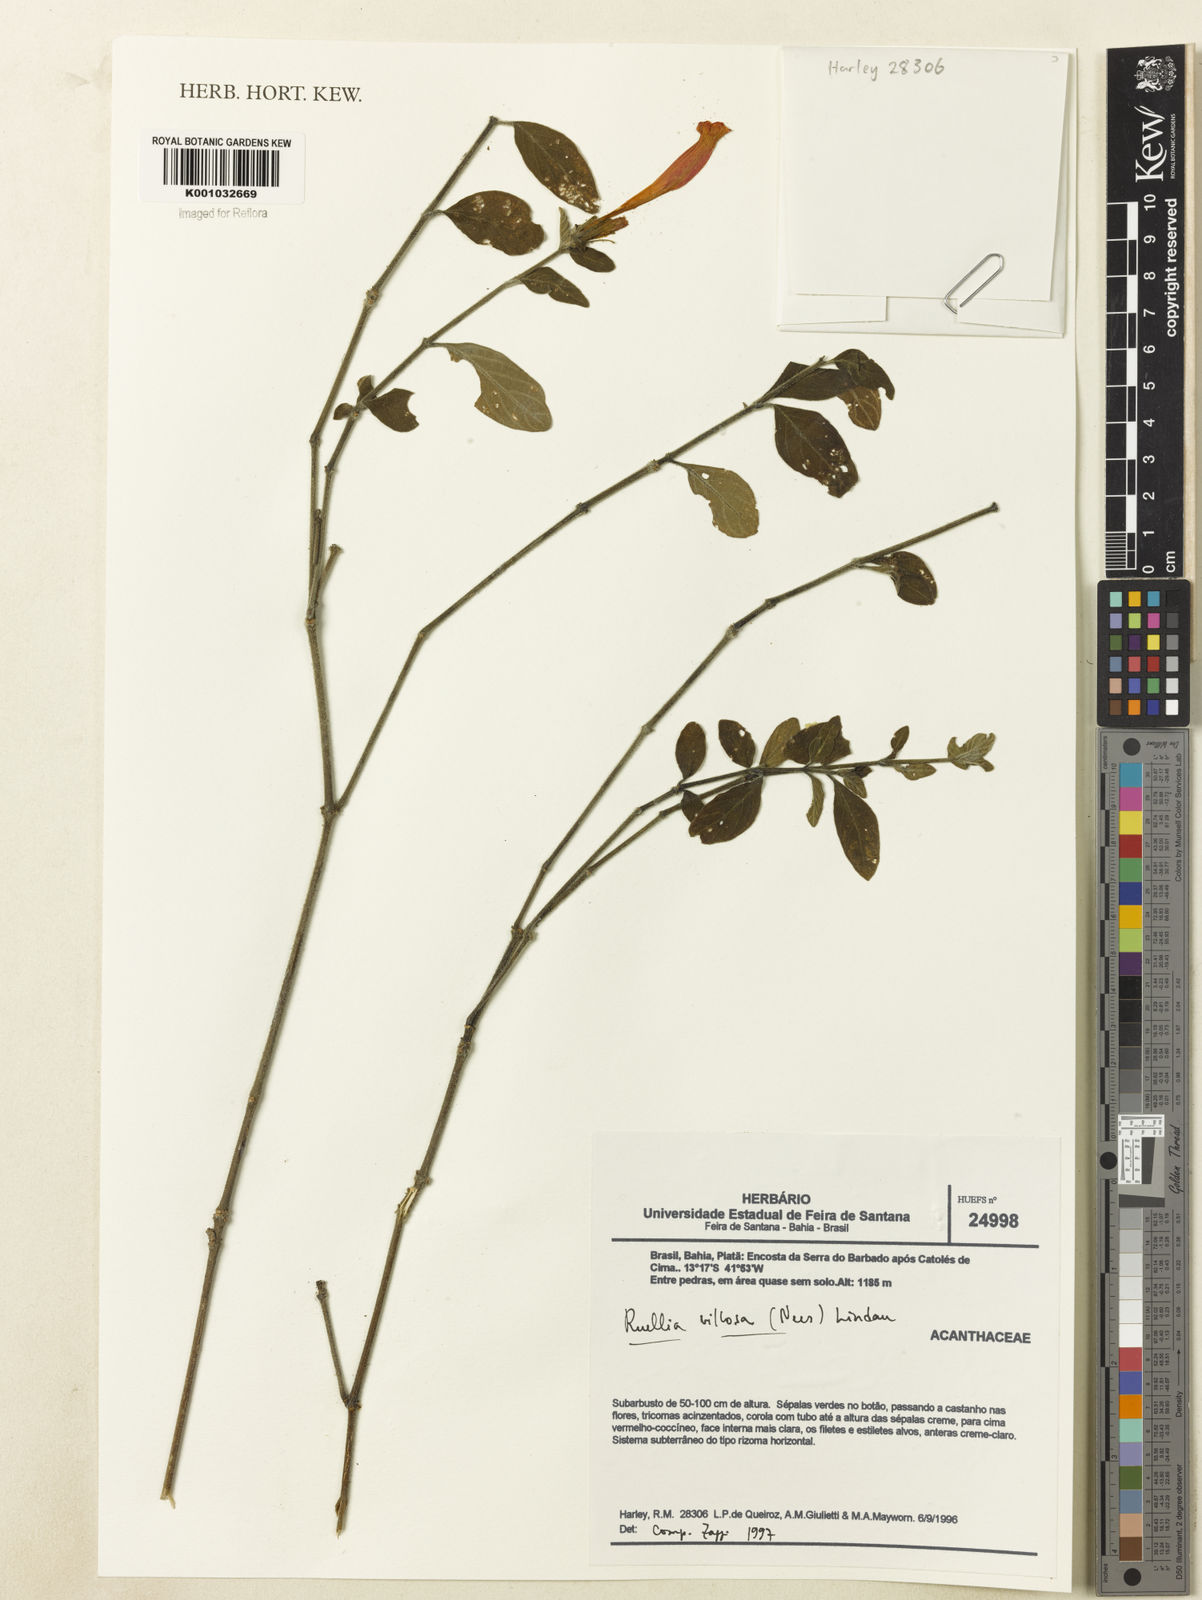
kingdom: Plantae
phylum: Tracheophyta
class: Magnoliopsida
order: Lamiales
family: Acanthaceae
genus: Ruellia
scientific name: Ruellia villosa
